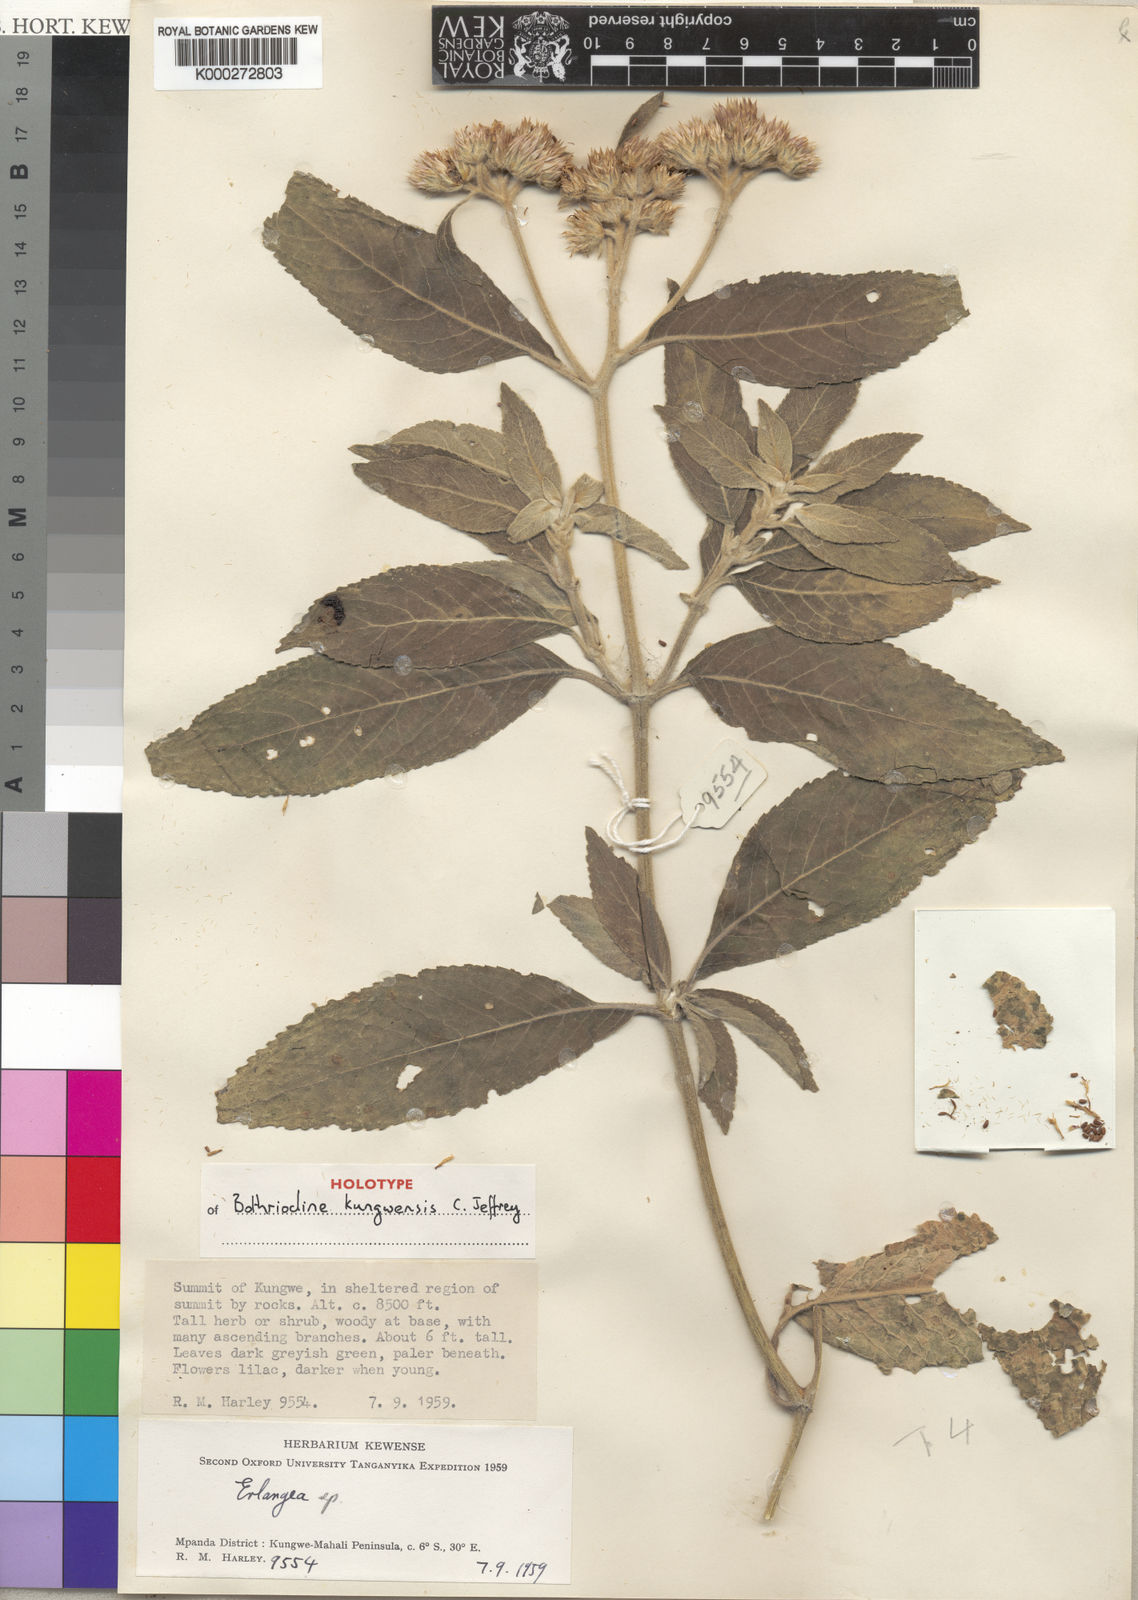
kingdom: Plantae
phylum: Tracheophyta
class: Magnoliopsida
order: Asterales
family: Asteraceae
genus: Bothriocline
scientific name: Bothriocline kungwensis
